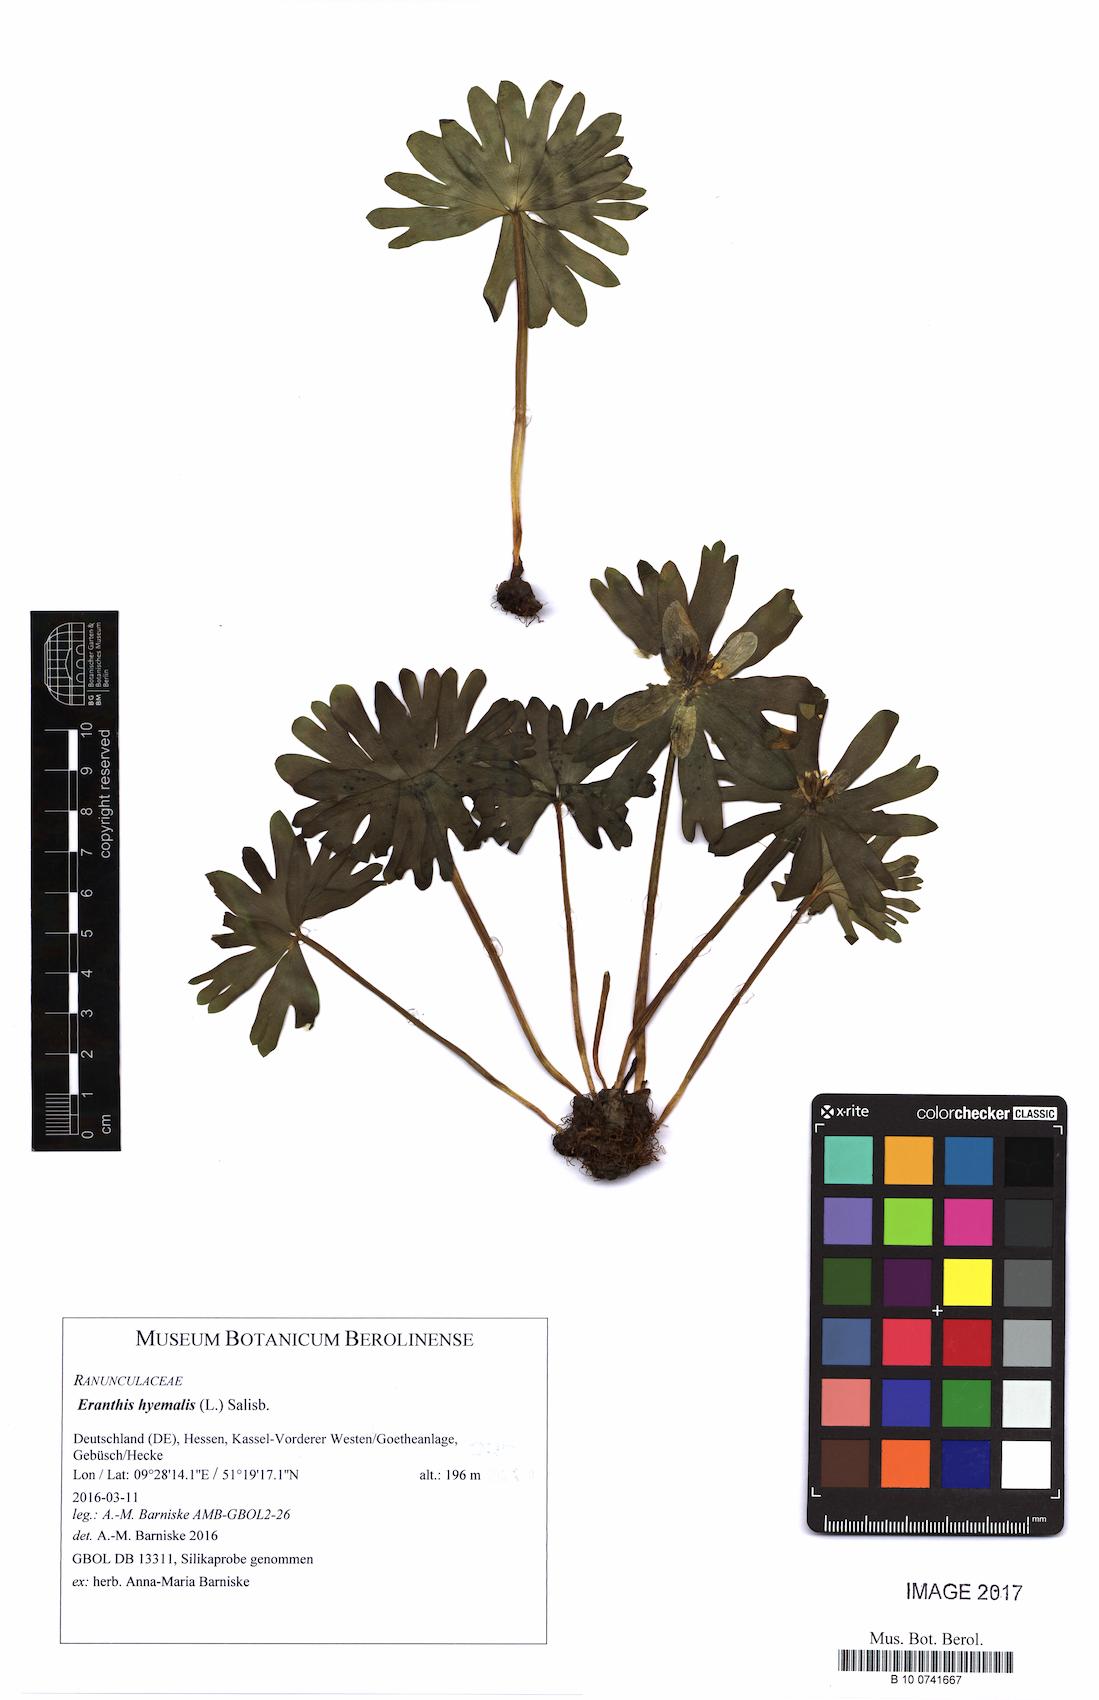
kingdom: Plantae
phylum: Tracheophyta
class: Magnoliopsida
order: Ranunculales
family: Ranunculaceae
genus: Eranthis
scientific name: Eranthis hyemalis
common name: Winter aconite
